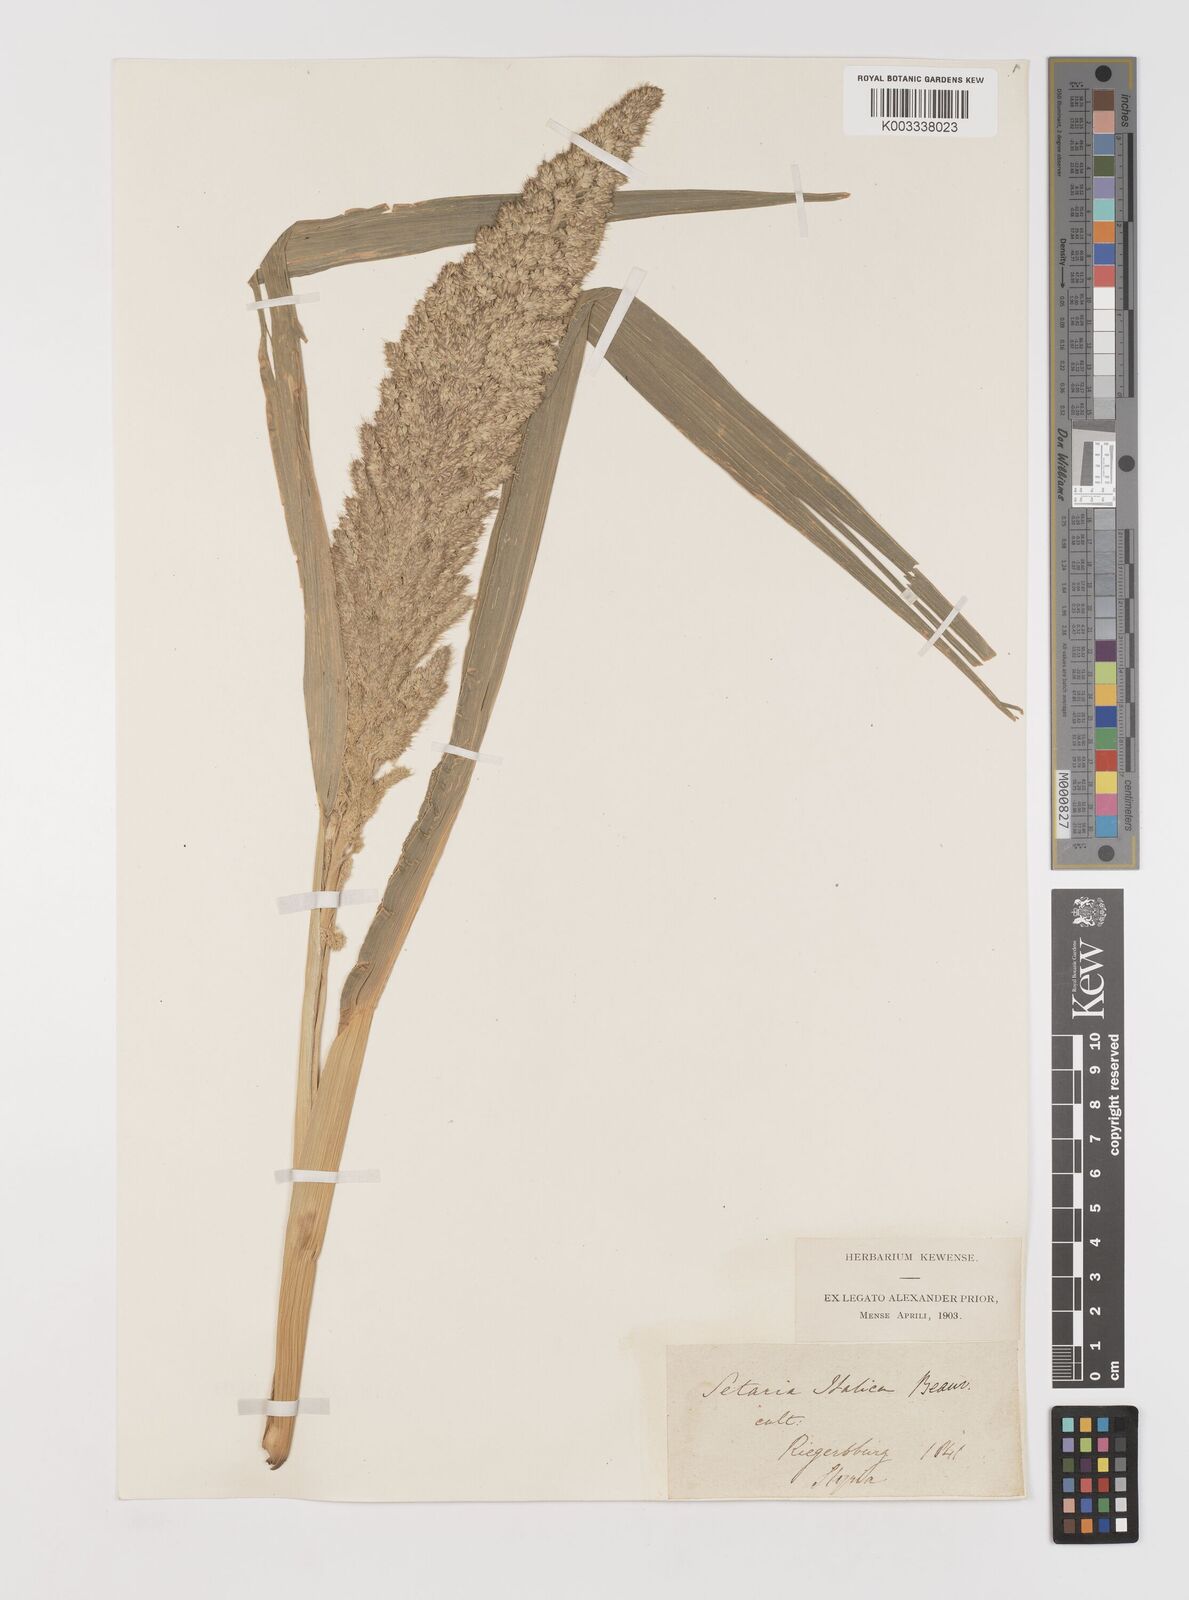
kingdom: Plantae
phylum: Tracheophyta
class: Liliopsida
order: Poales
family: Poaceae
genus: Setaria
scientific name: Setaria italica
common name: Foxtail bristle-grass
